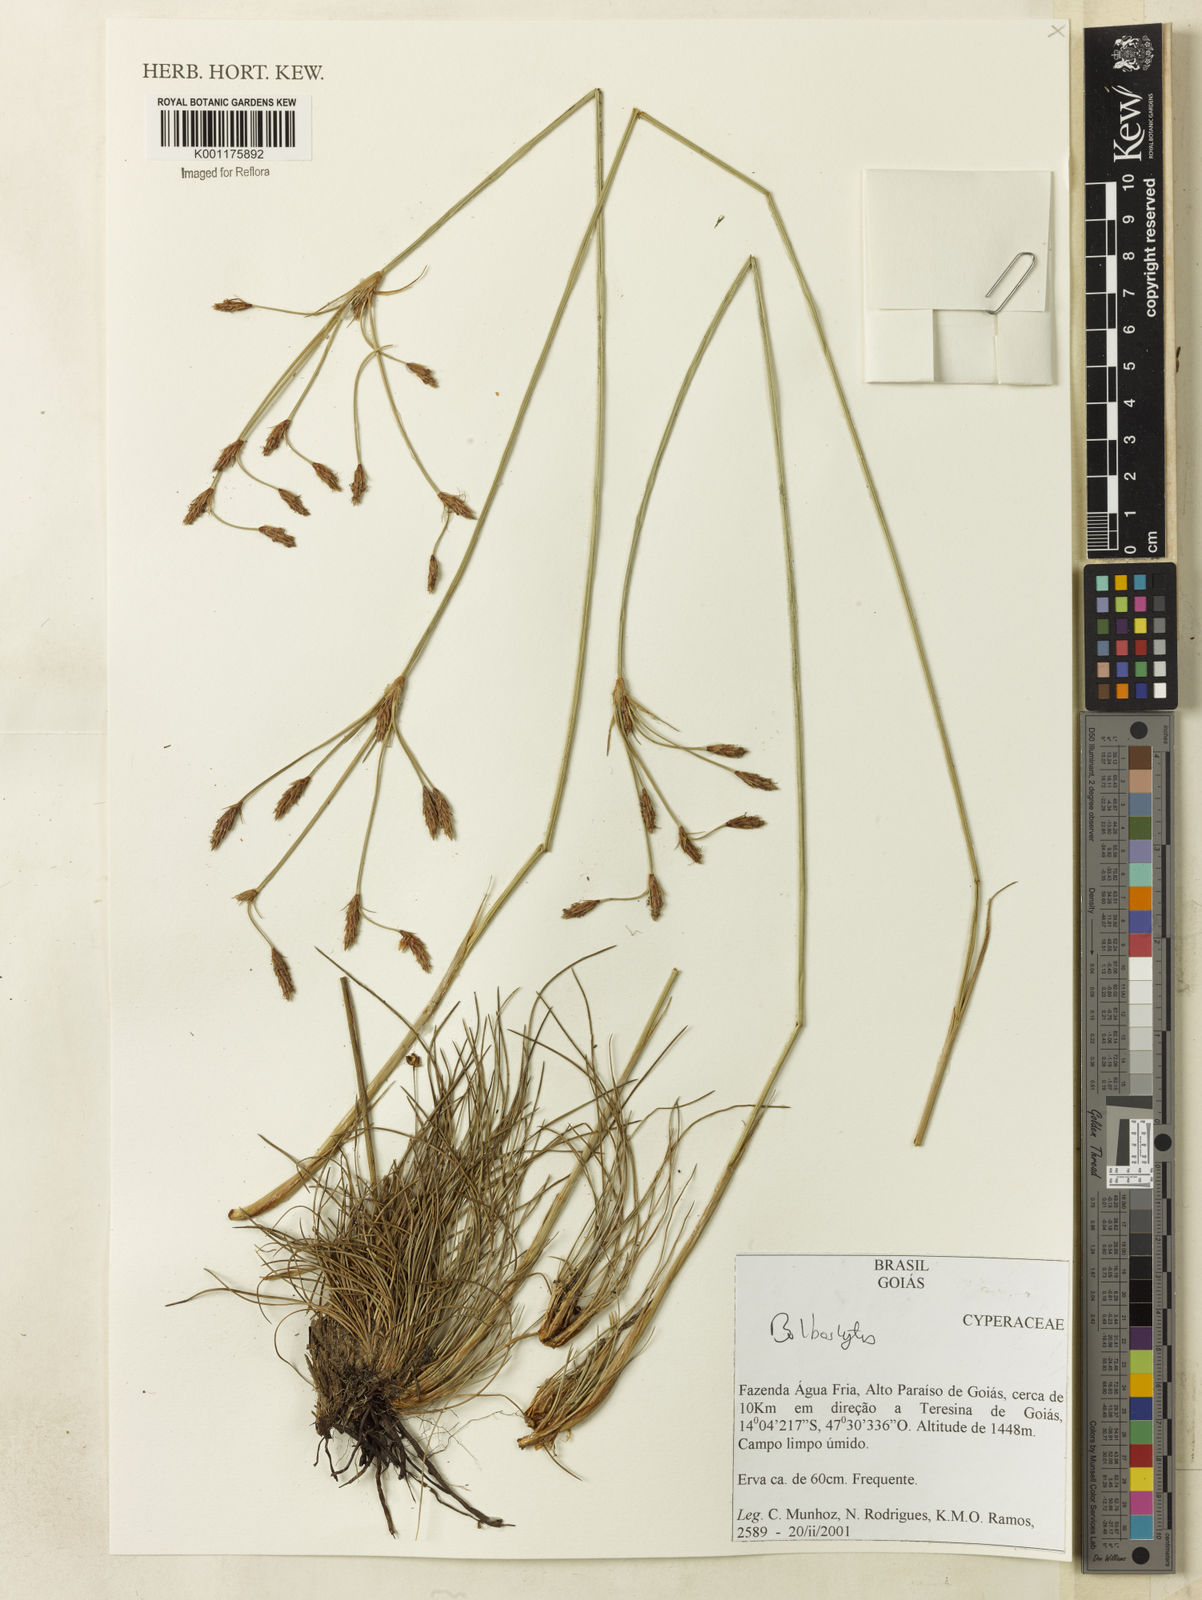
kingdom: Plantae
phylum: Tracheophyta
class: Liliopsida
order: Poales
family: Cyperaceae
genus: Bulbostylis
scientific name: Bulbostylis
